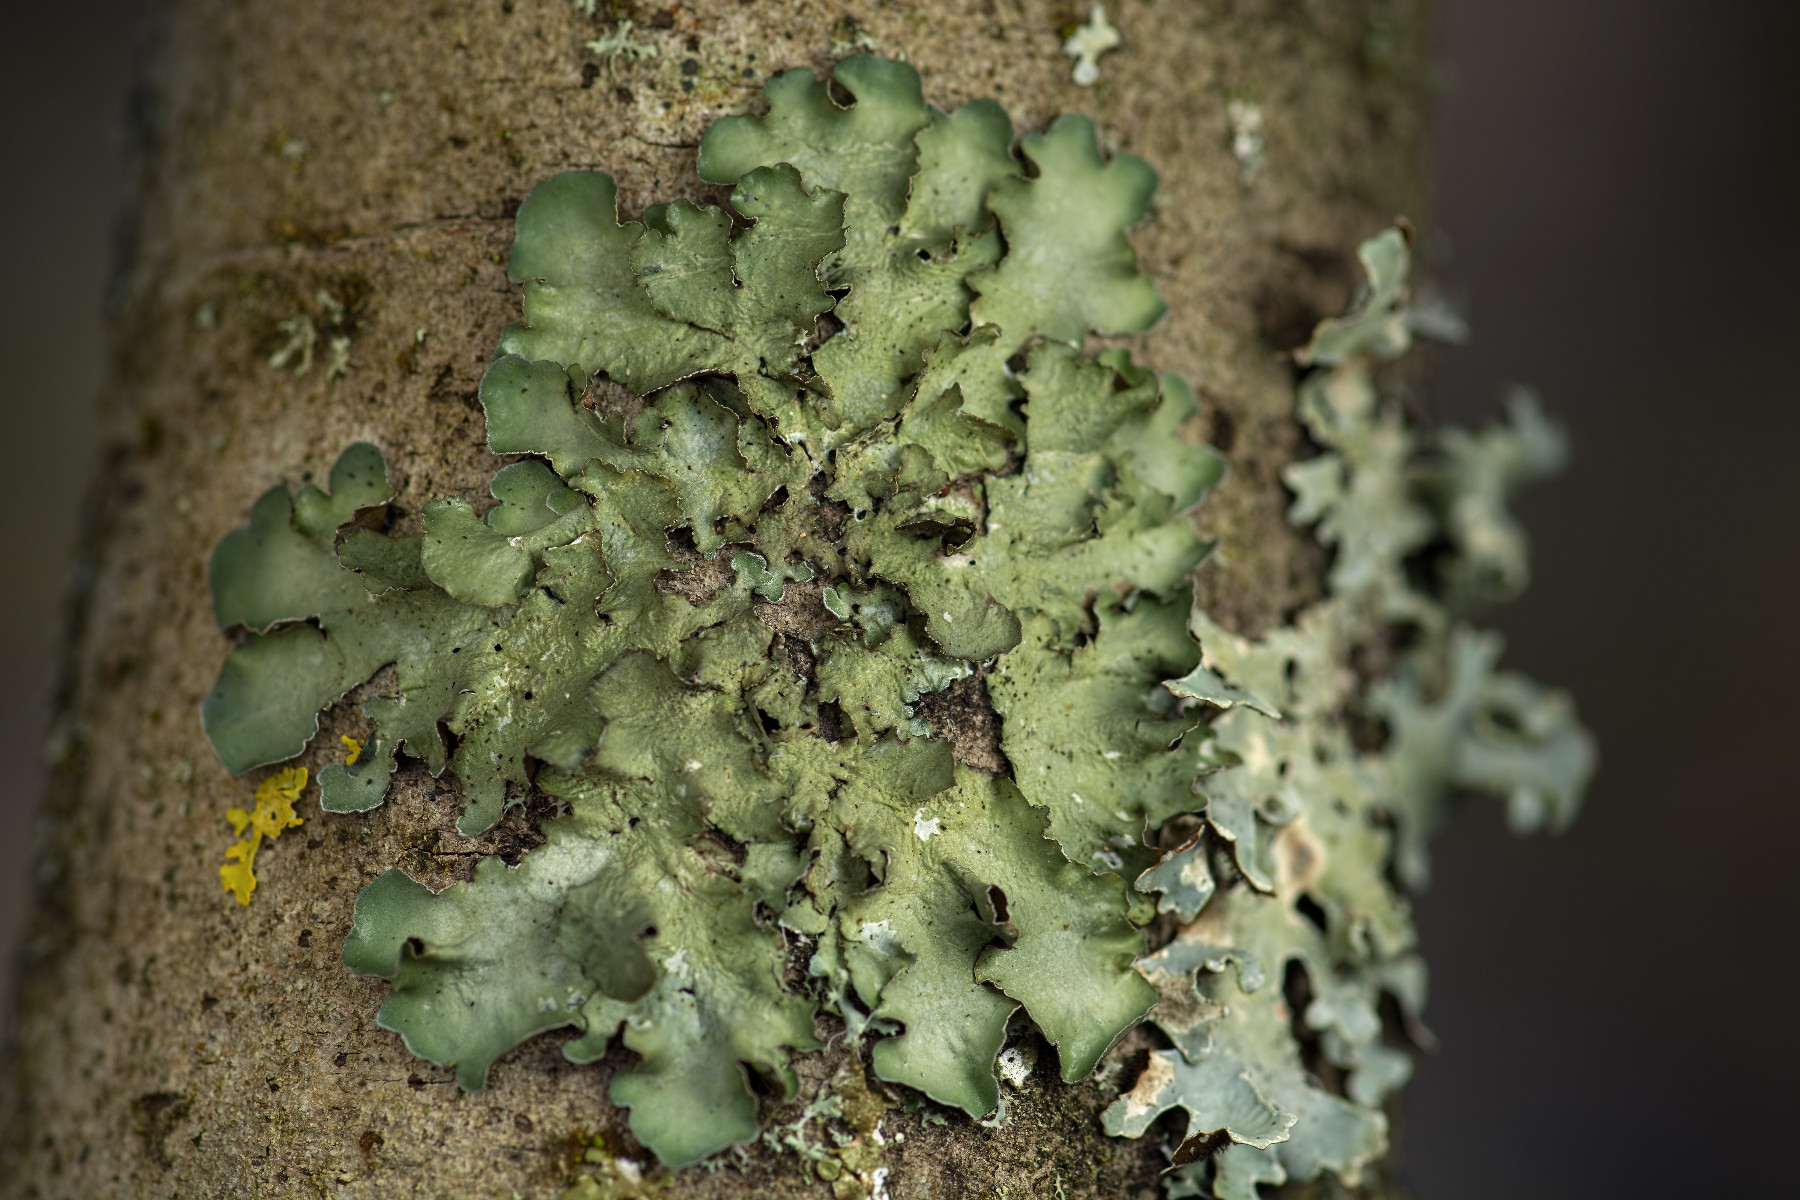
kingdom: Fungi
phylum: Ascomycota
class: Lecanoromycetes
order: Lecanorales
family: Parmeliaceae
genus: Pleurosticta
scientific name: Pleurosticta acetabulum
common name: stor skållav
